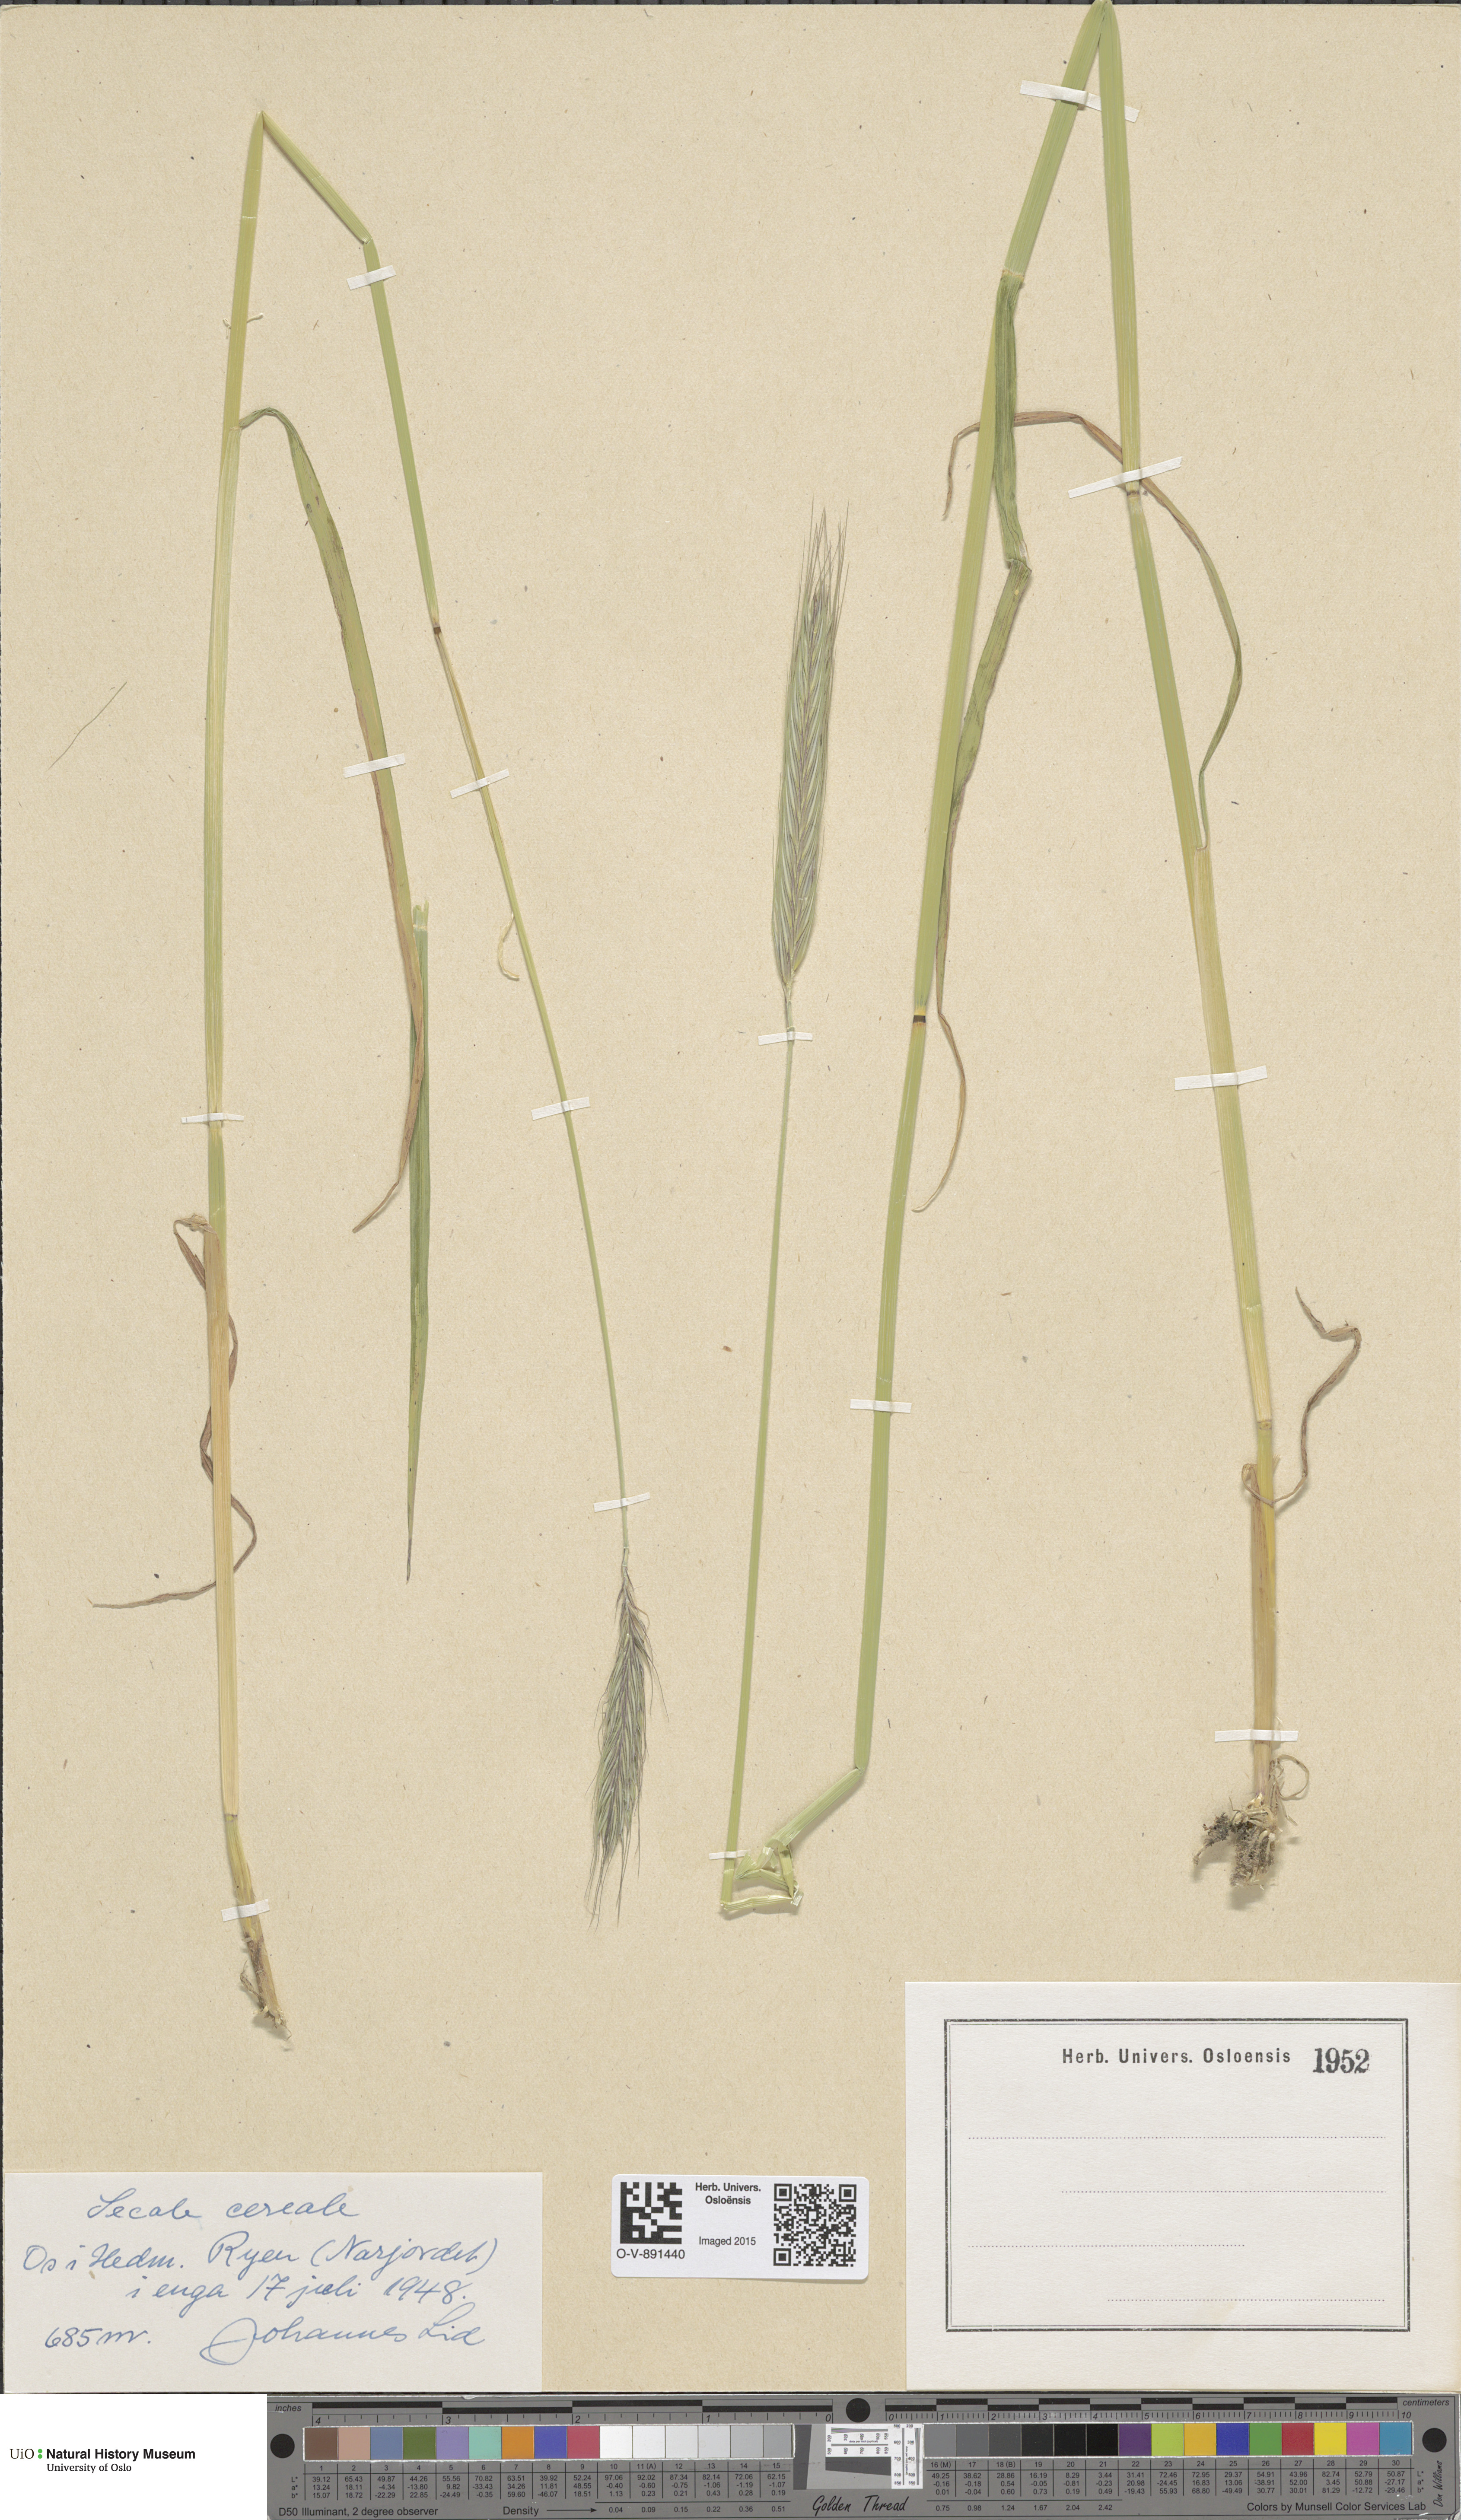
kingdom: Plantae
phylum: Tracheophyta
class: Liliopsida
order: Poales
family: Poaceae
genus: Secale
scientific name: Secale cereale
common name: Rye
